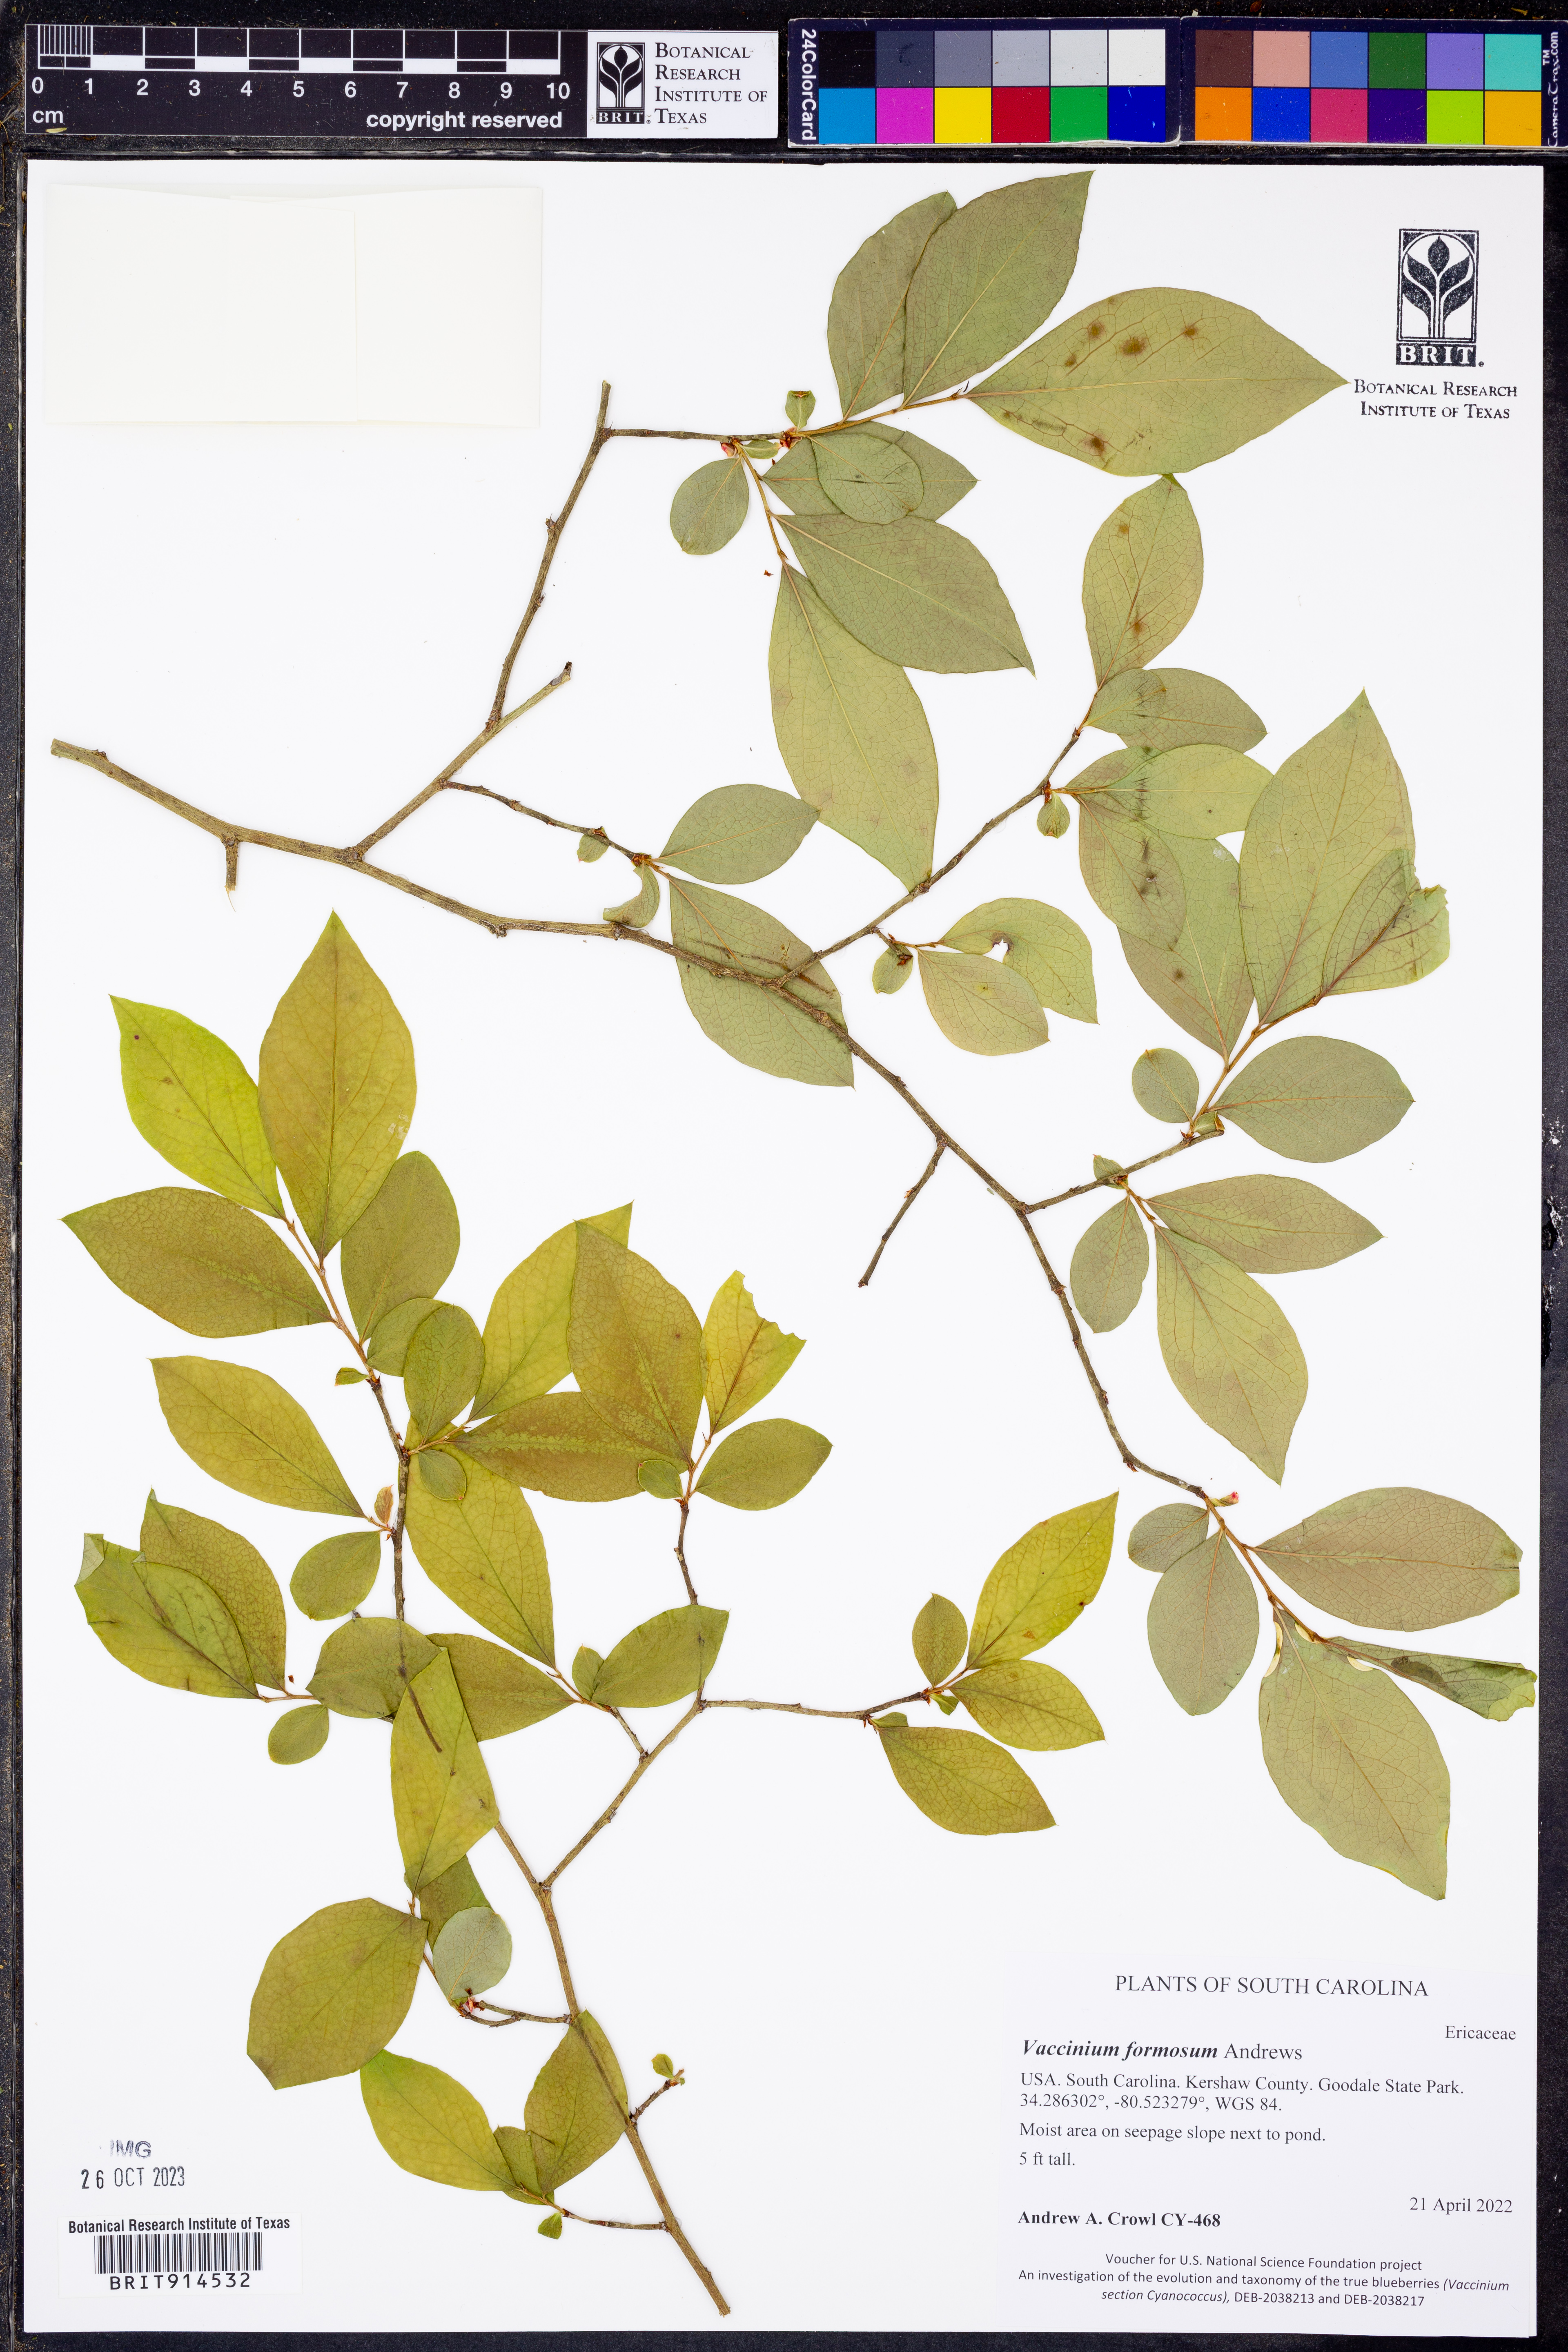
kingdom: Plantae
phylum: Tracheophyta
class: Magnoliopsida
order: Ericales
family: Ericaceae
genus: Vaccinium
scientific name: Vaccinium corymbosum
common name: Blueberry
